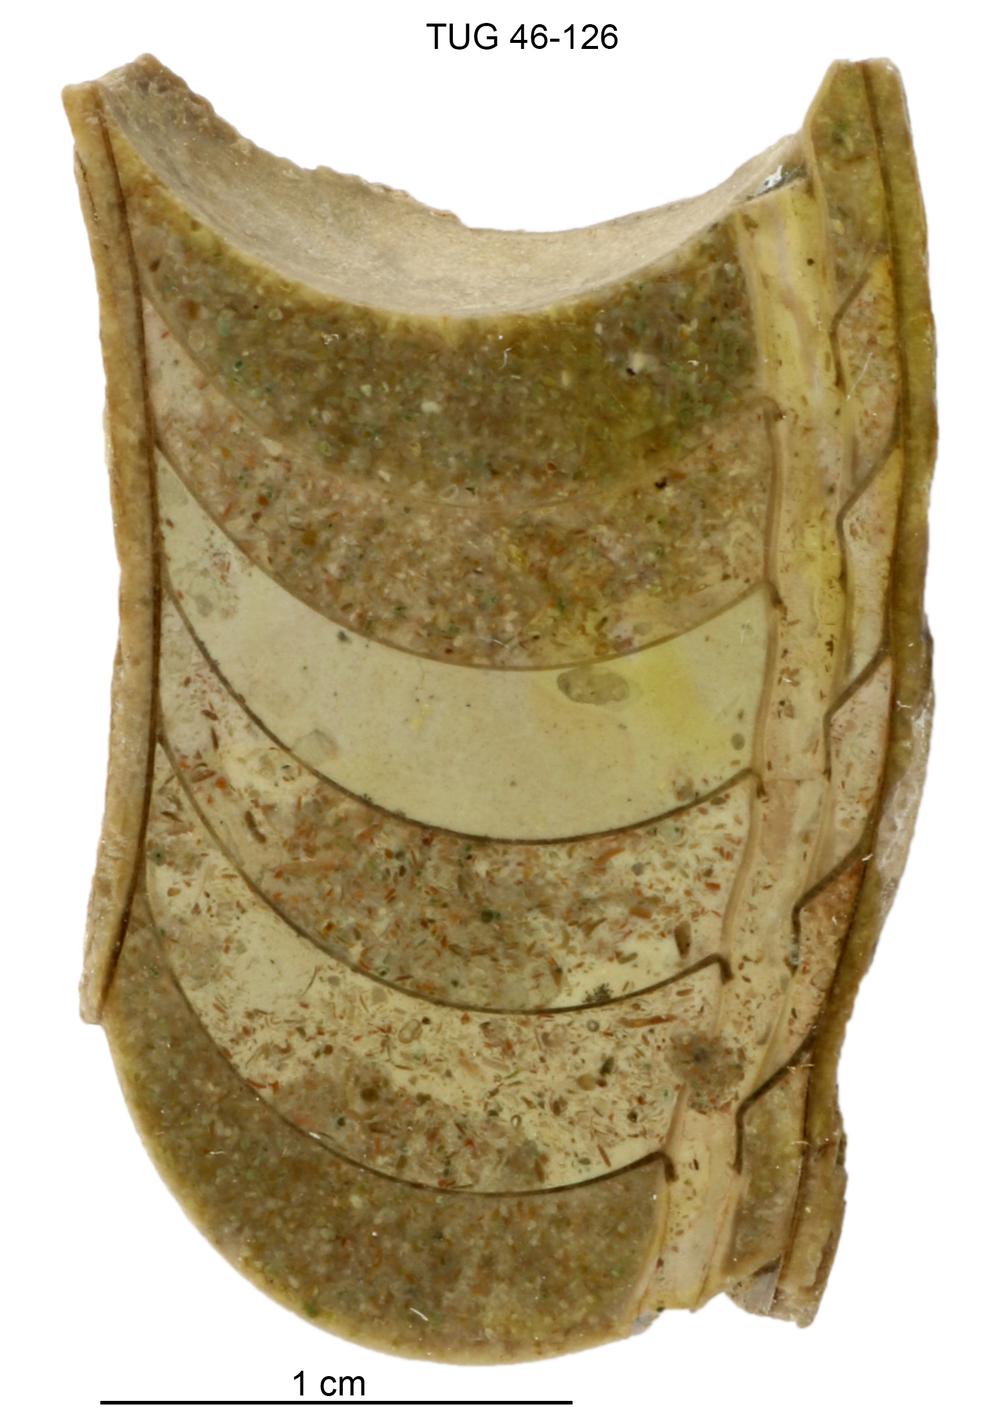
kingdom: Animalia
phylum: Mollusca
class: Cephalopoda
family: Tarphyceratidae
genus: Planctoceras
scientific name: Planctoceras
